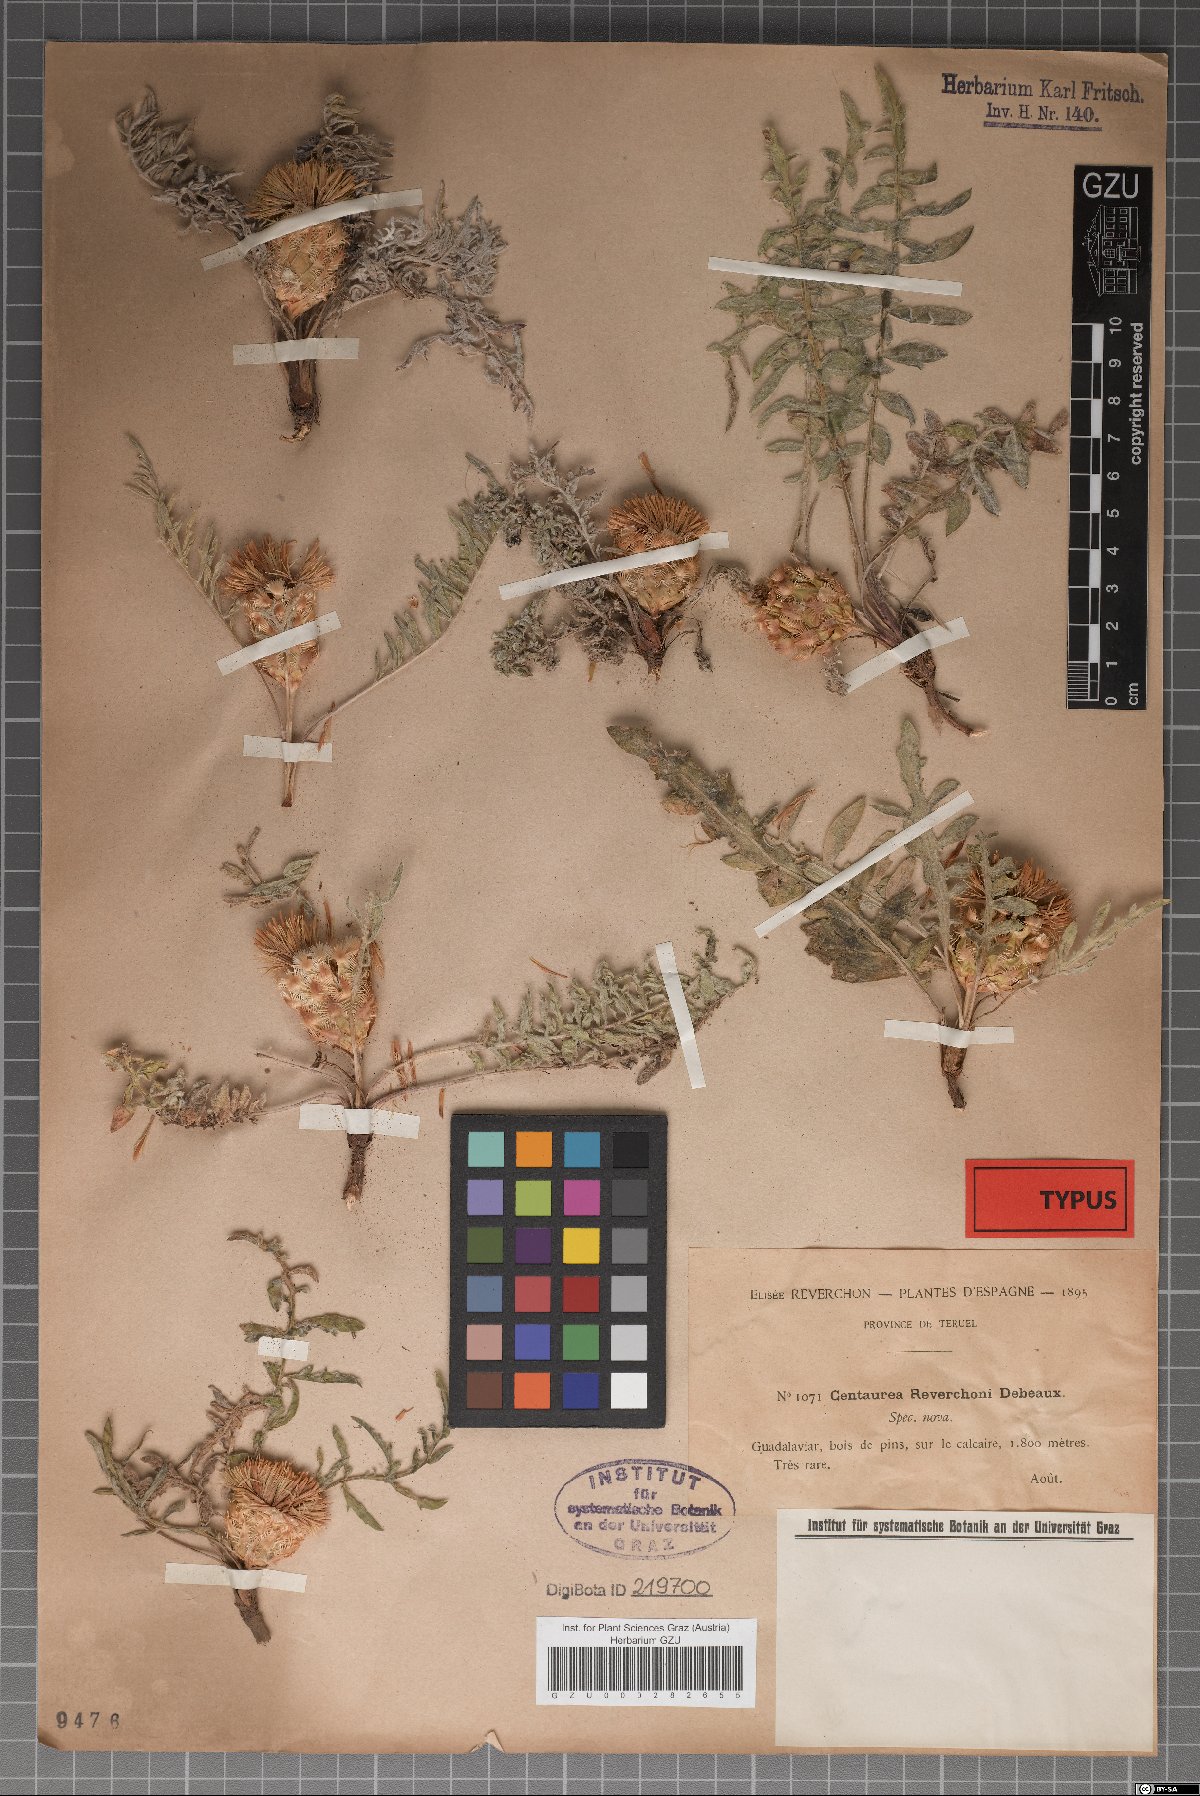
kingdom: Plantae
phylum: Tracheophyta
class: Magnoliopsida
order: Asterales
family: Asteraceae
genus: Centaurea
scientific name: Centaurea reverchonii
